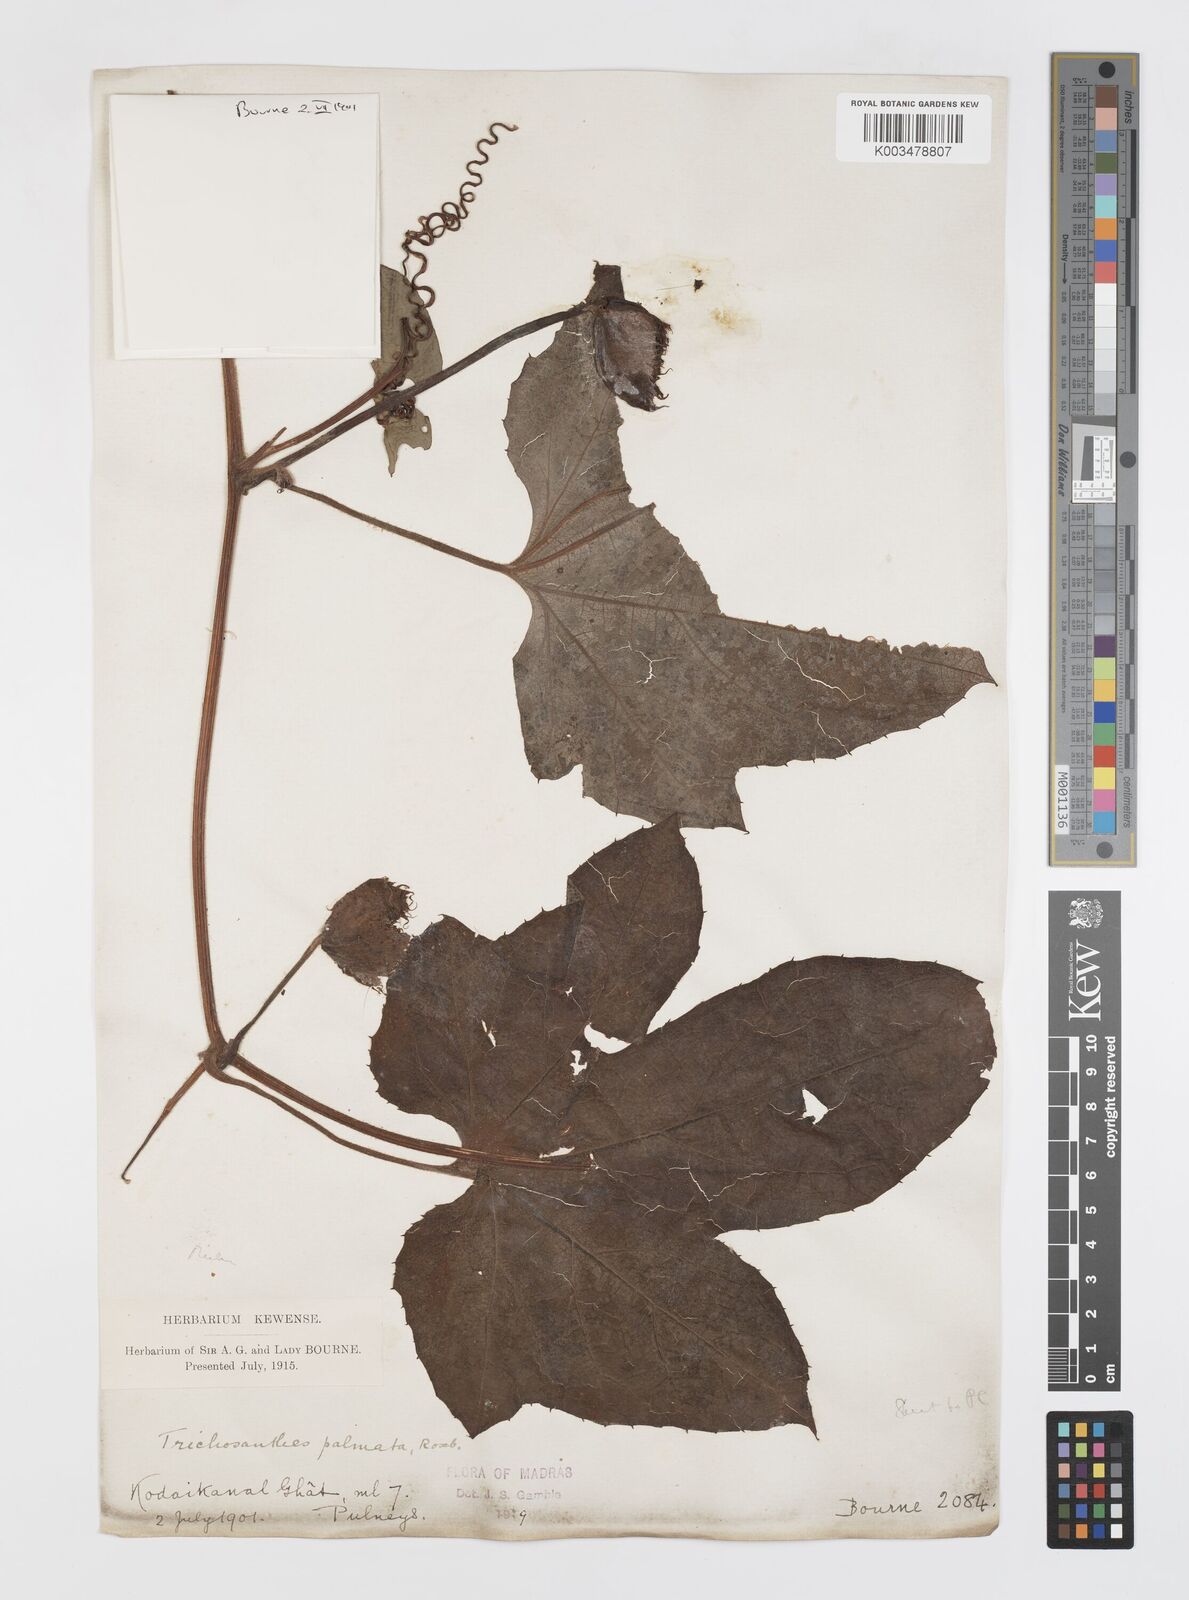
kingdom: Plantae
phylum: Tracheophyta
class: Magnoliopsida
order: Cucurbitales
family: Cucurbitaceae
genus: Trichosanthes
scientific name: Trichosanthes anaimalaiensis
